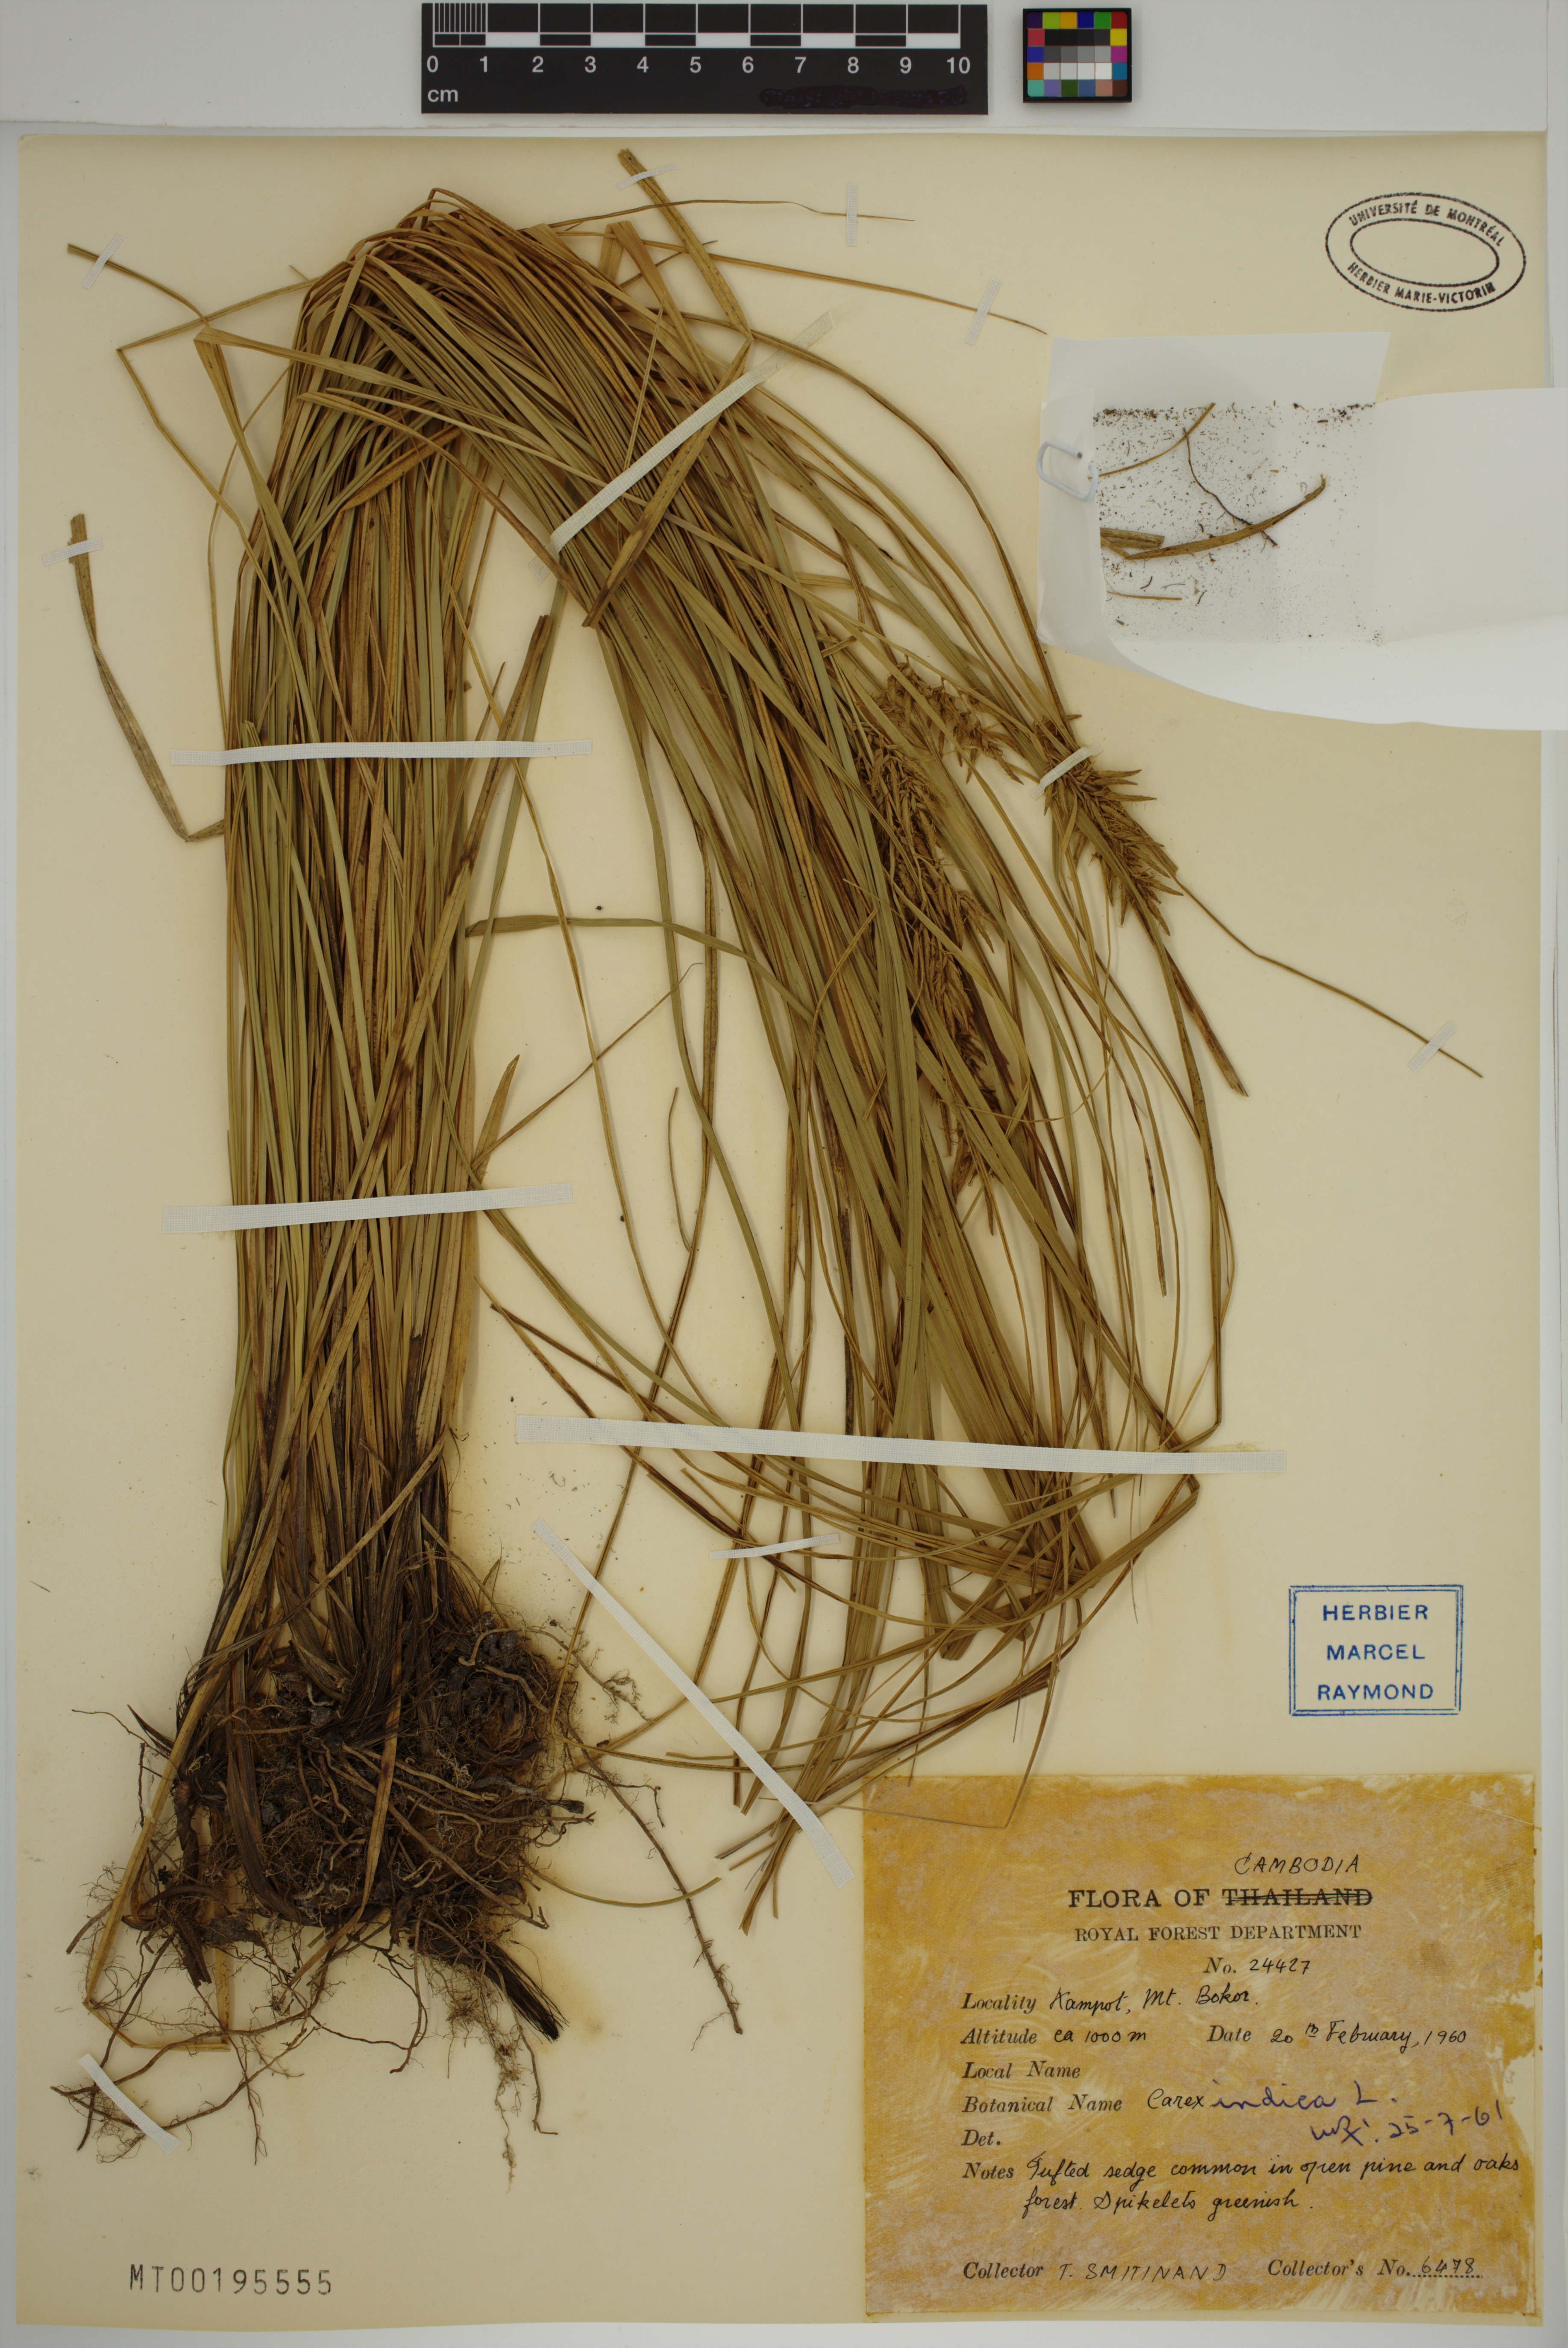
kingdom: Plantae
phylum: Tracheophyta
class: Liliopsida
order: Poales
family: Cyperaceae
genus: Carex
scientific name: Carex indica
